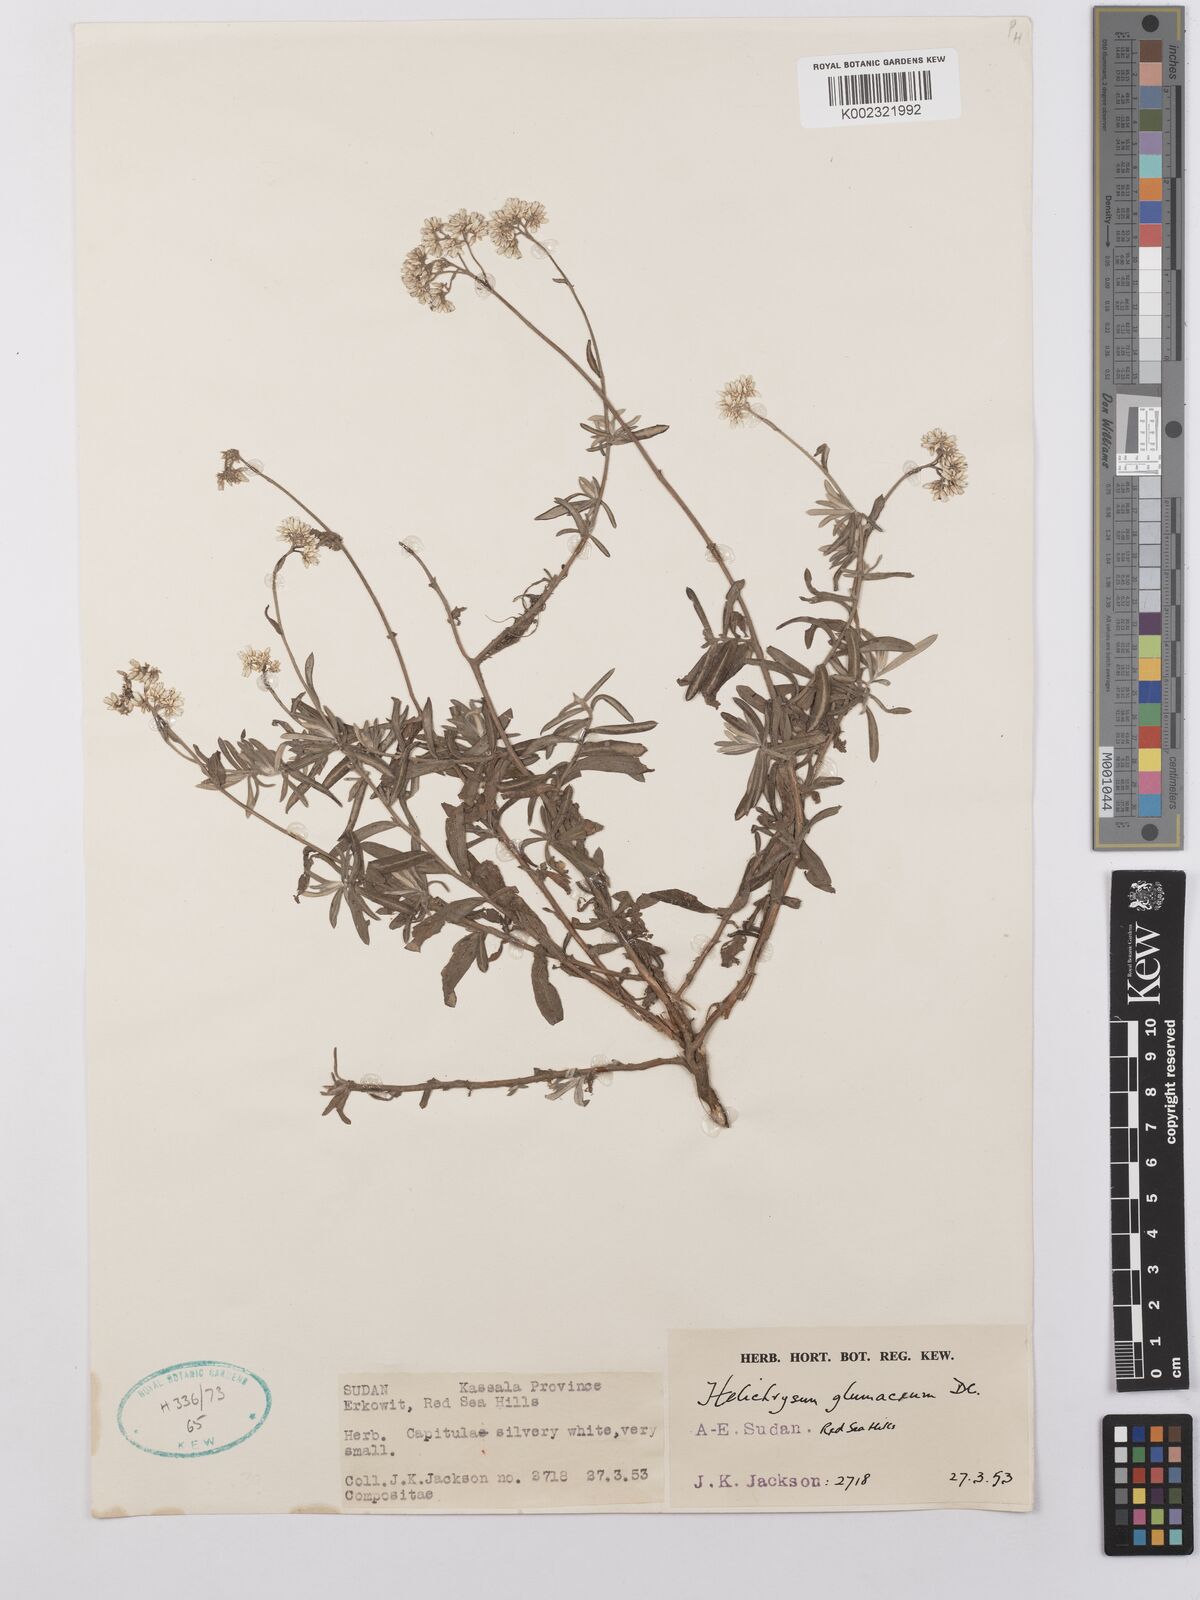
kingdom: Plantae
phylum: Tracheophyta
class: Magnoliopsida
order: Asterales
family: Asteraceae
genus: Helichrysum
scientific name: Helichrysum glumaceum
